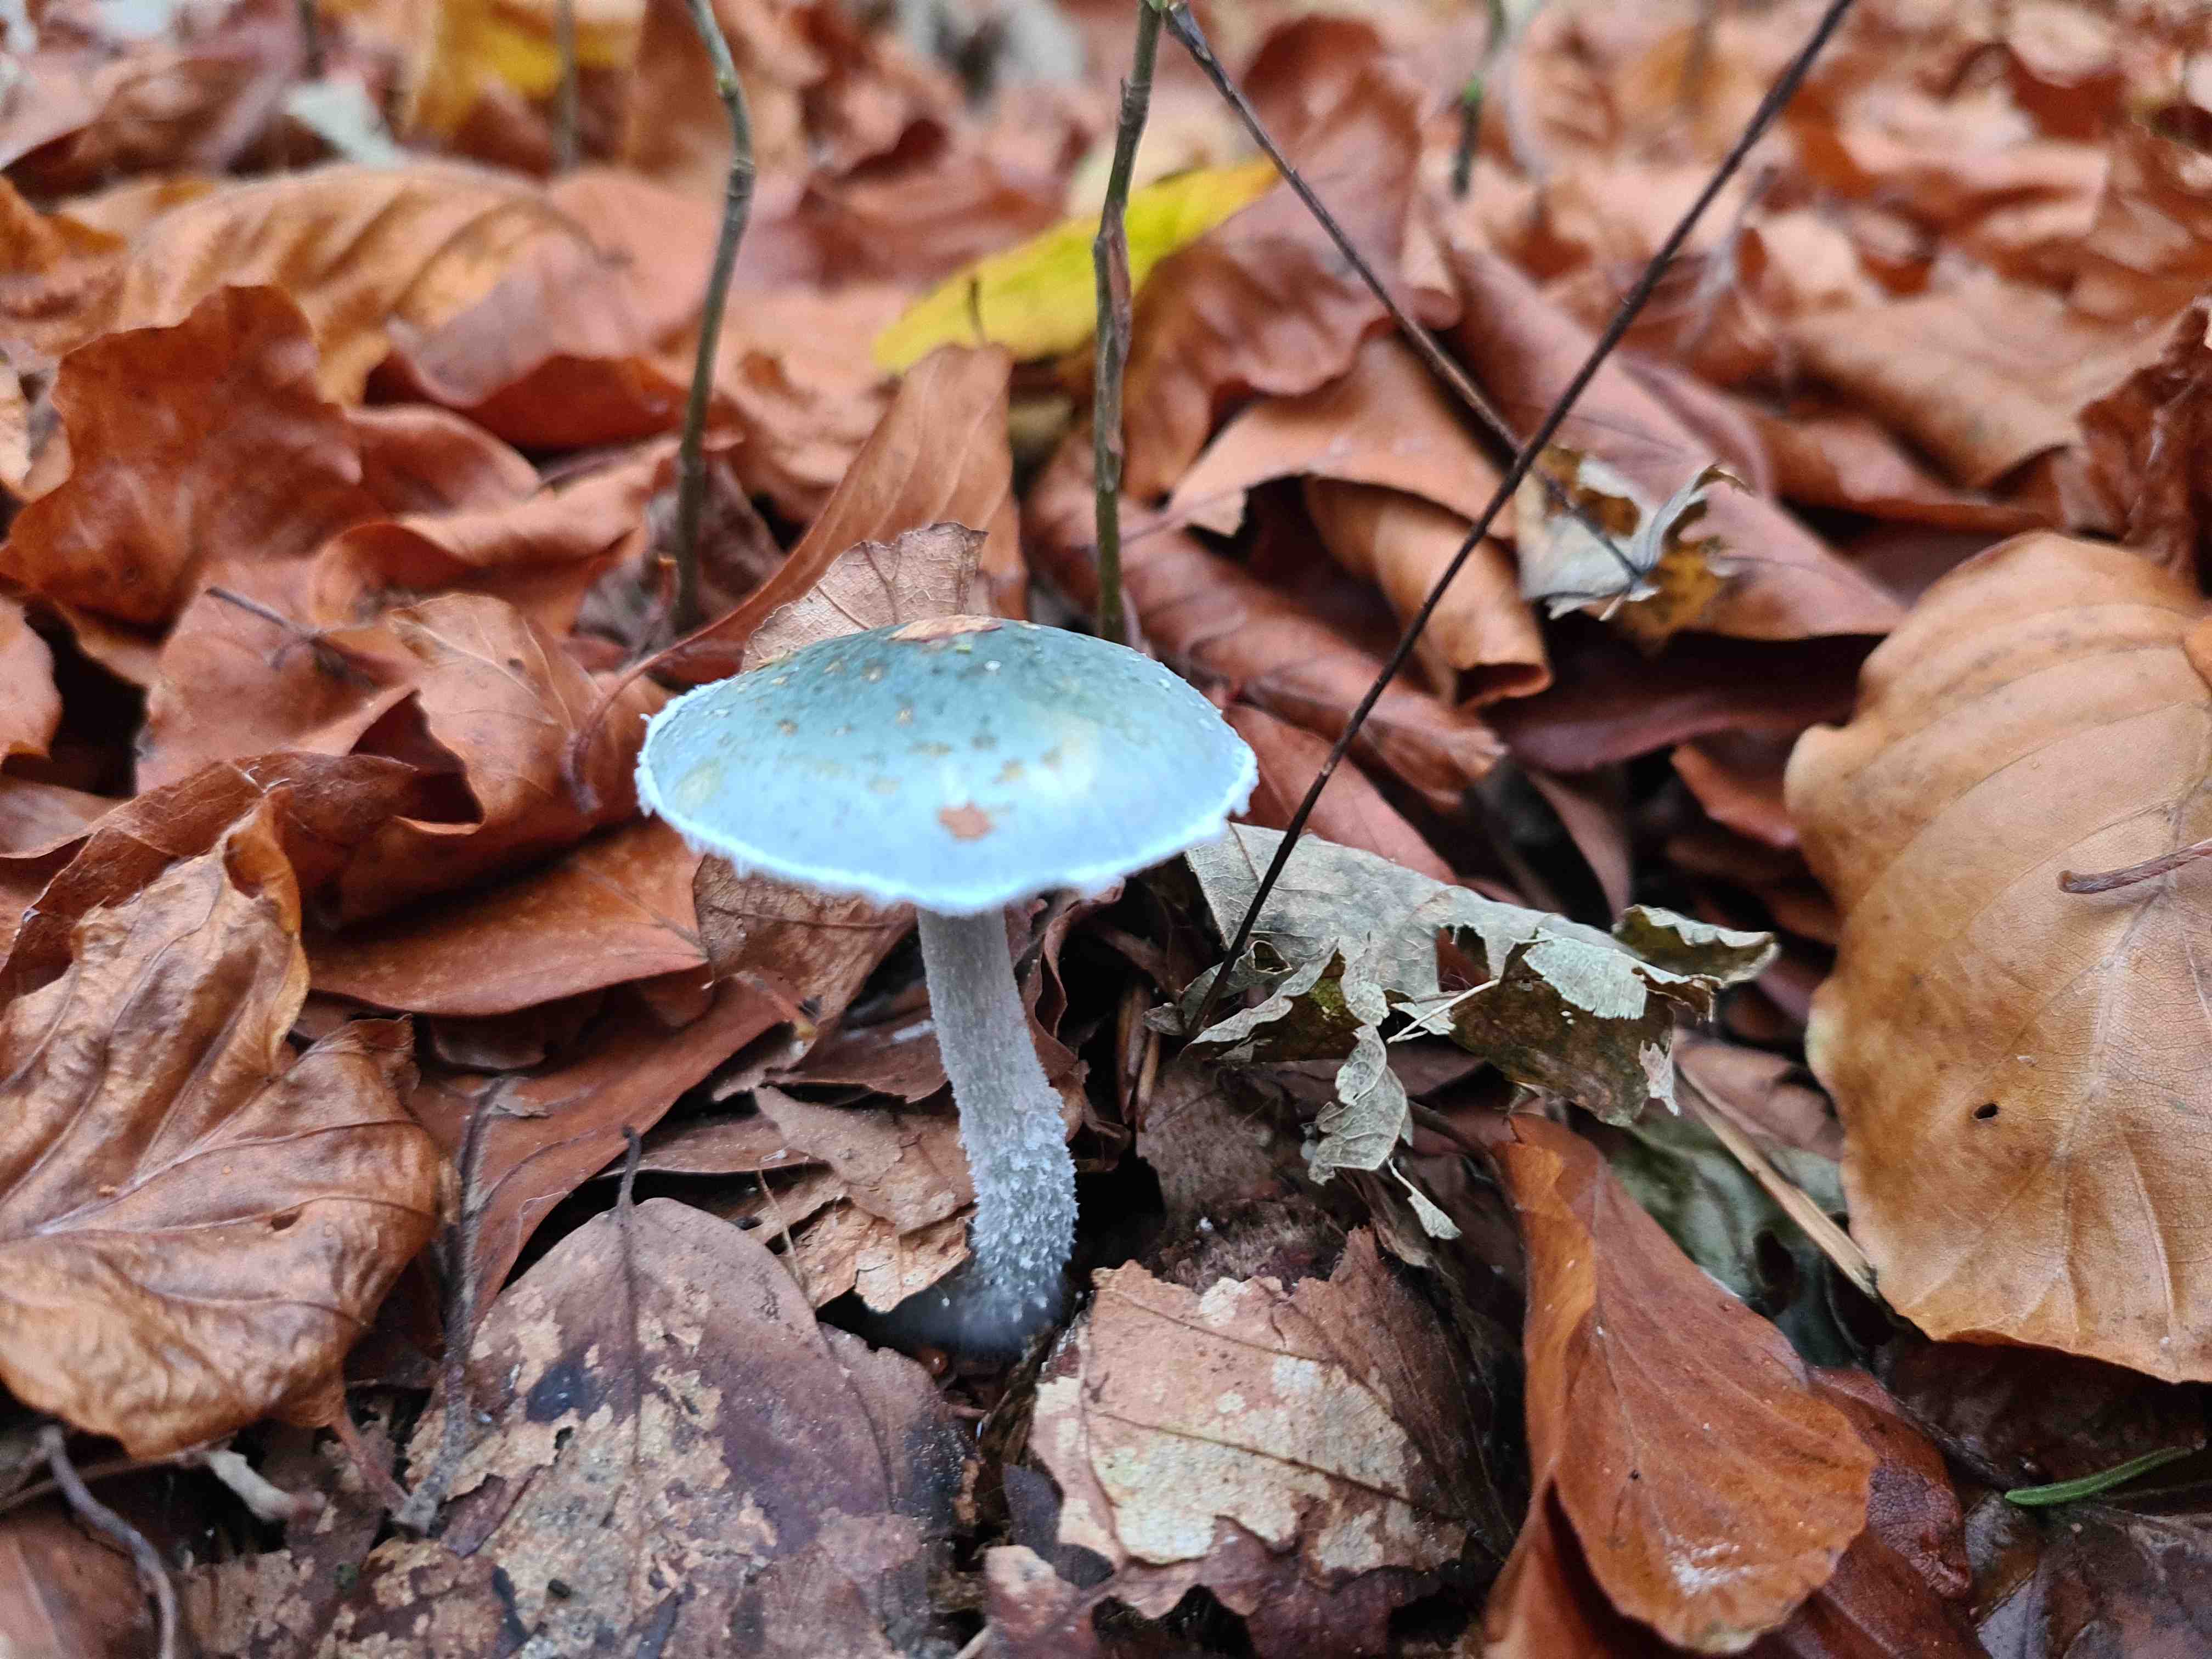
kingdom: Fungi
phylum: Basidiomycota
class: Agaricomycetes
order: Agaricales
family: Strophariaceae
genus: Stropharia
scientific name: Stropharia cyanea
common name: blågrøn bredblad
